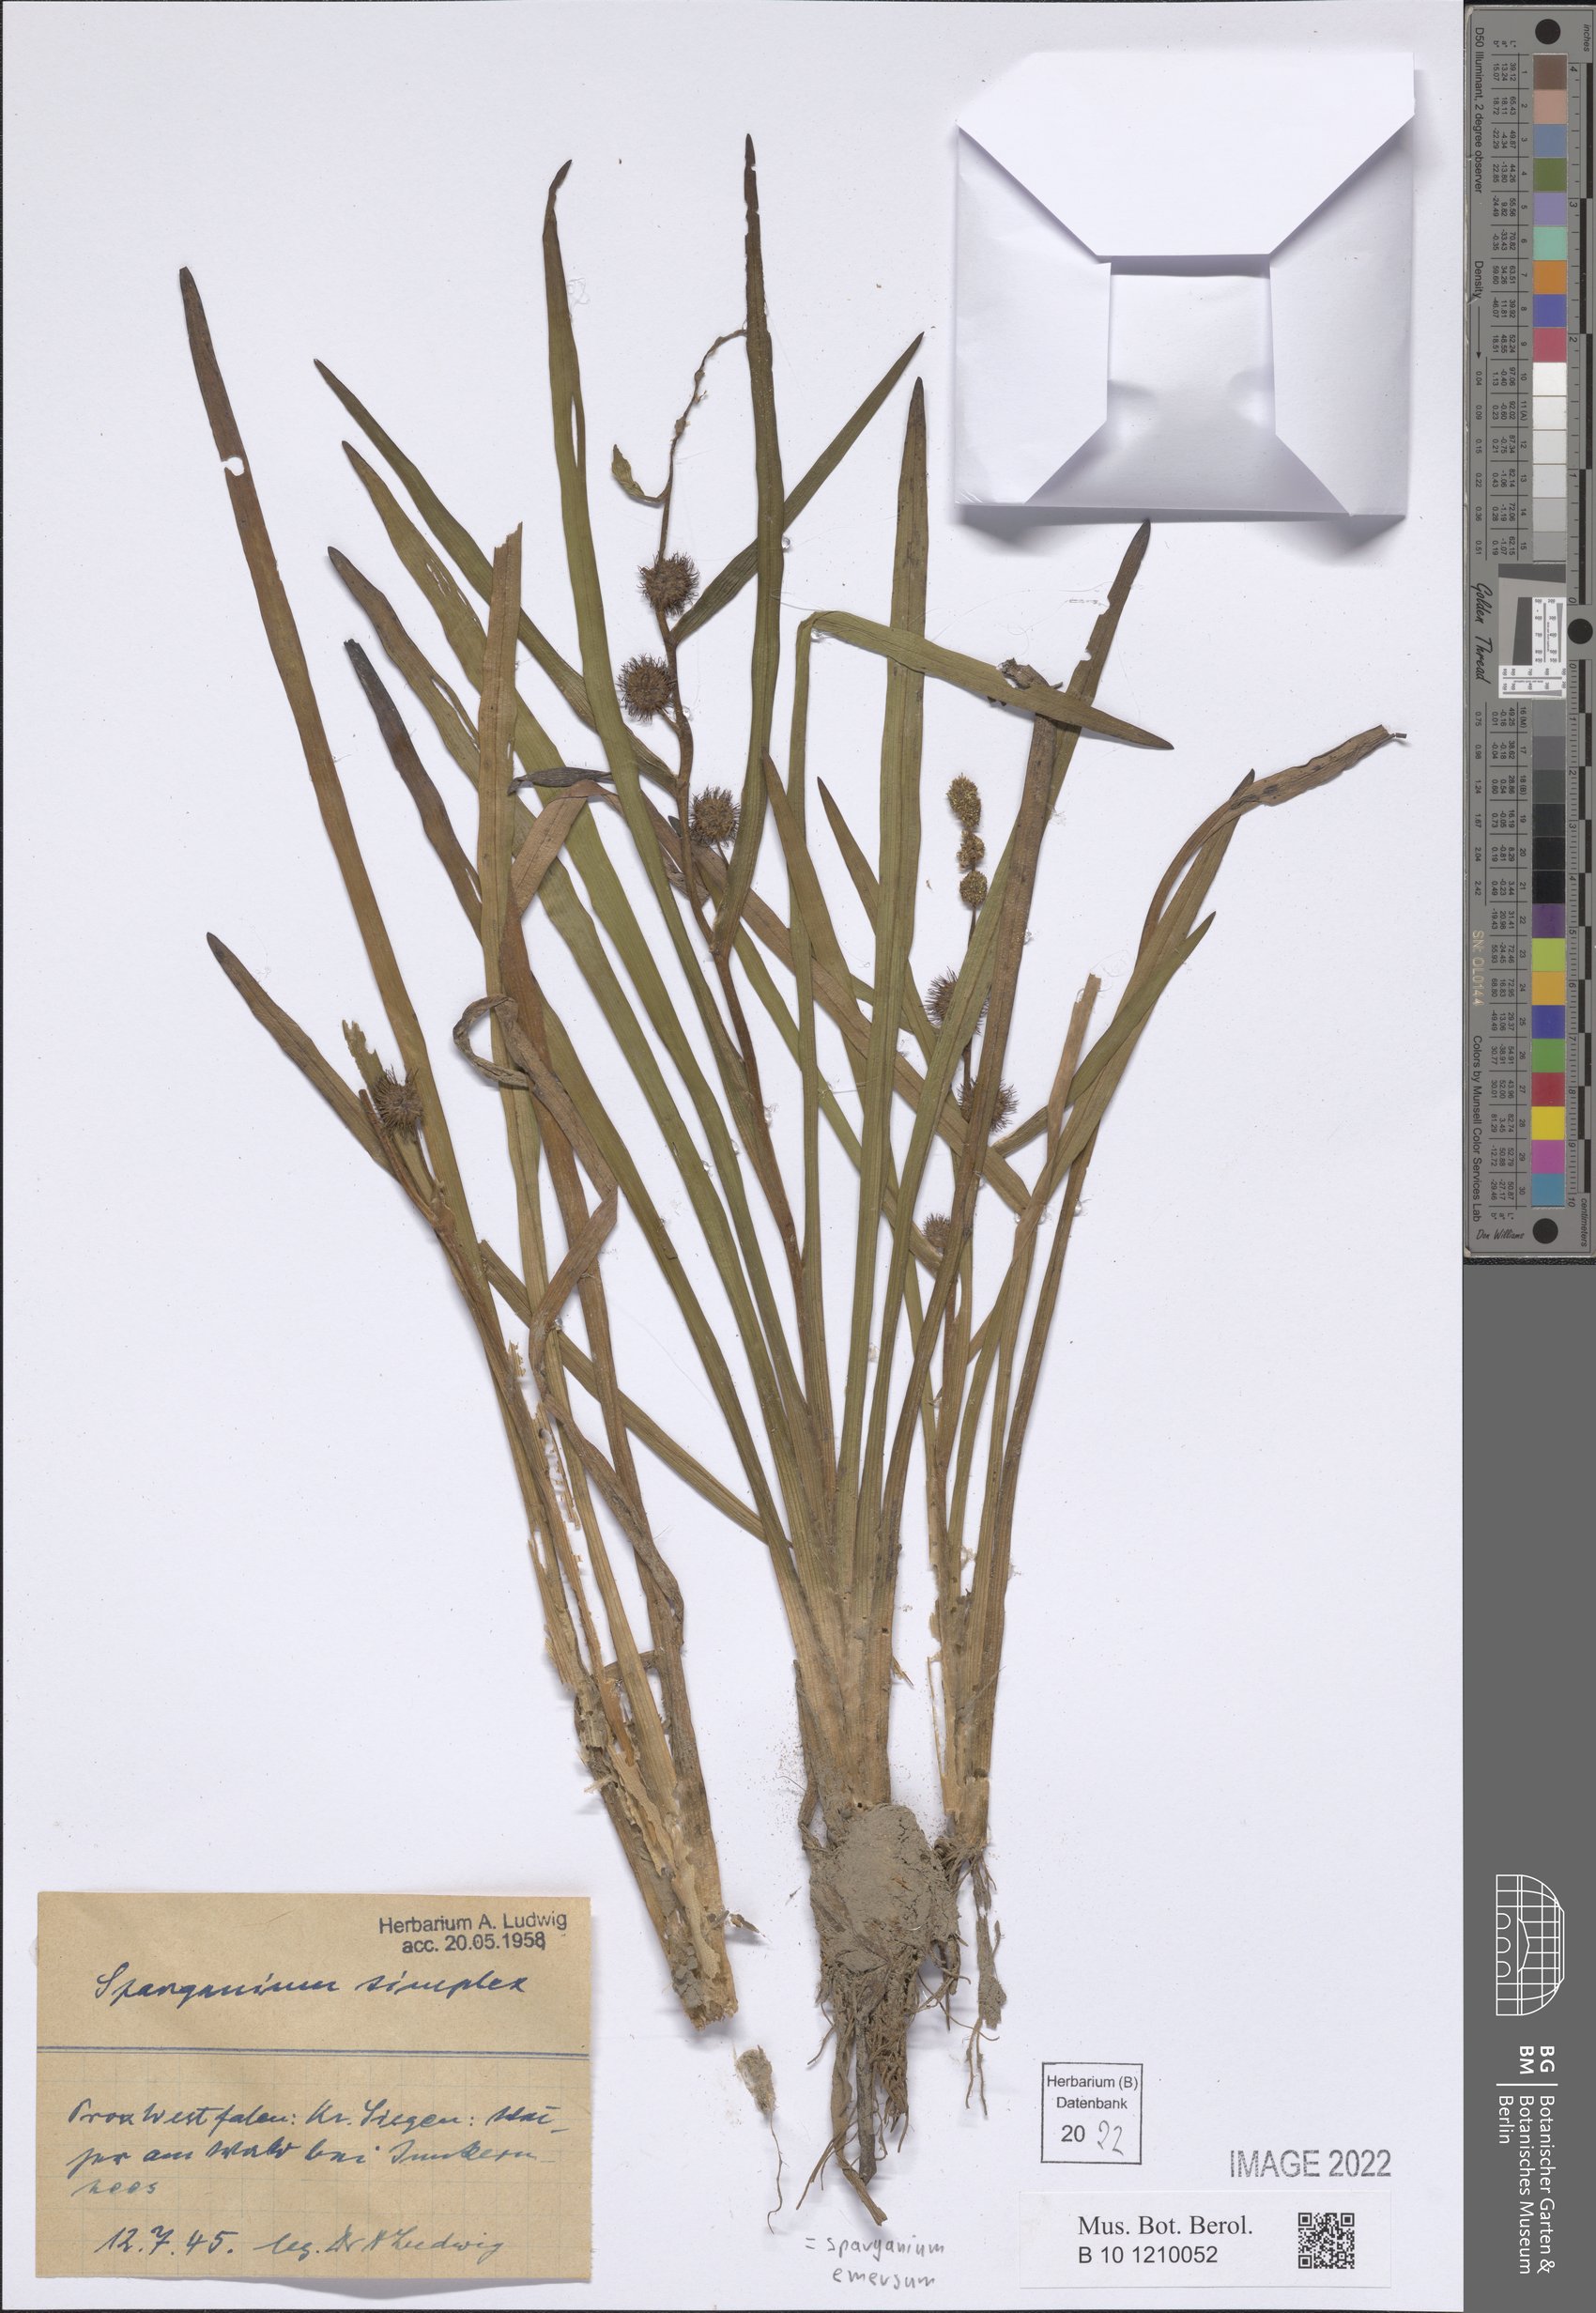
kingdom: Plantae
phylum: Tracheophyta
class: Liliopsida
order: Poales
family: Typhaceae
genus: Sparganium
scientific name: Sparganium emersum
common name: Unbranched bur-reed
